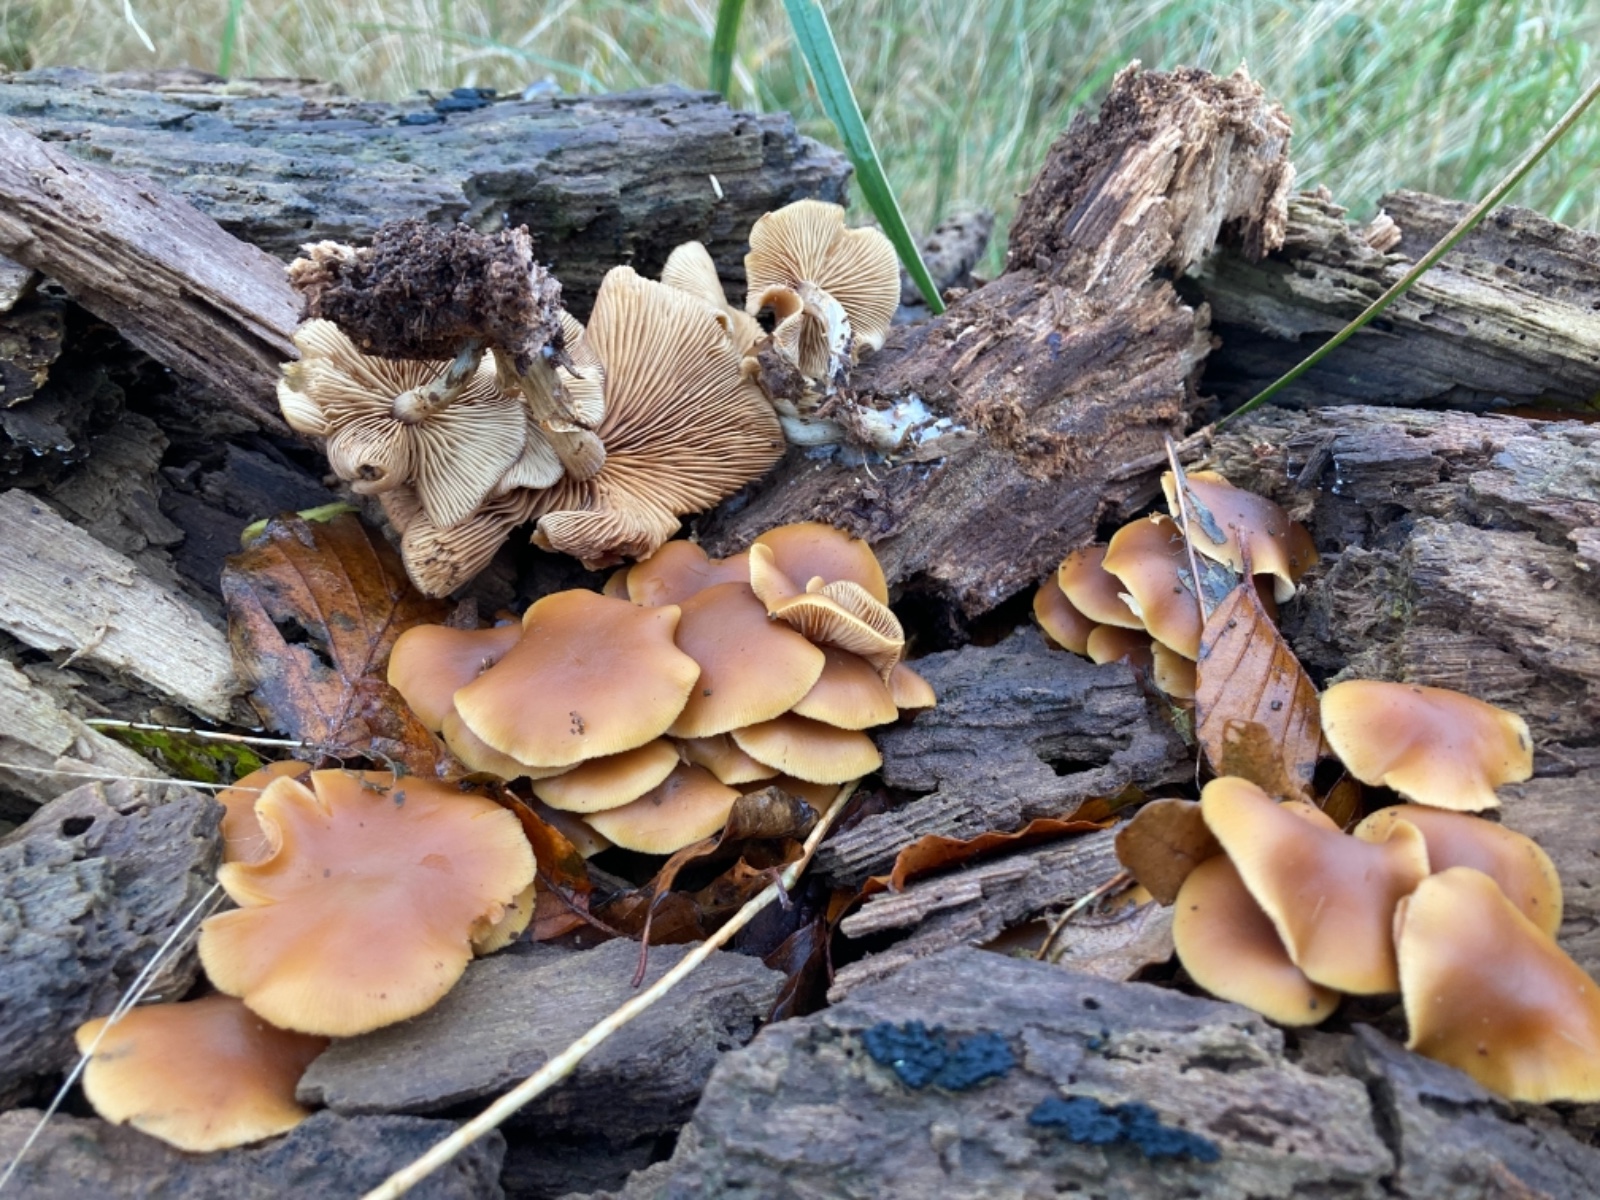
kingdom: Fungi
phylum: Basidiomycota
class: Agaricomycetes
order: Agaricales
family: Hymenogastraceae
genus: Galerina
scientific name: Galerina marginata
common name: randbæltet hjelmhat
